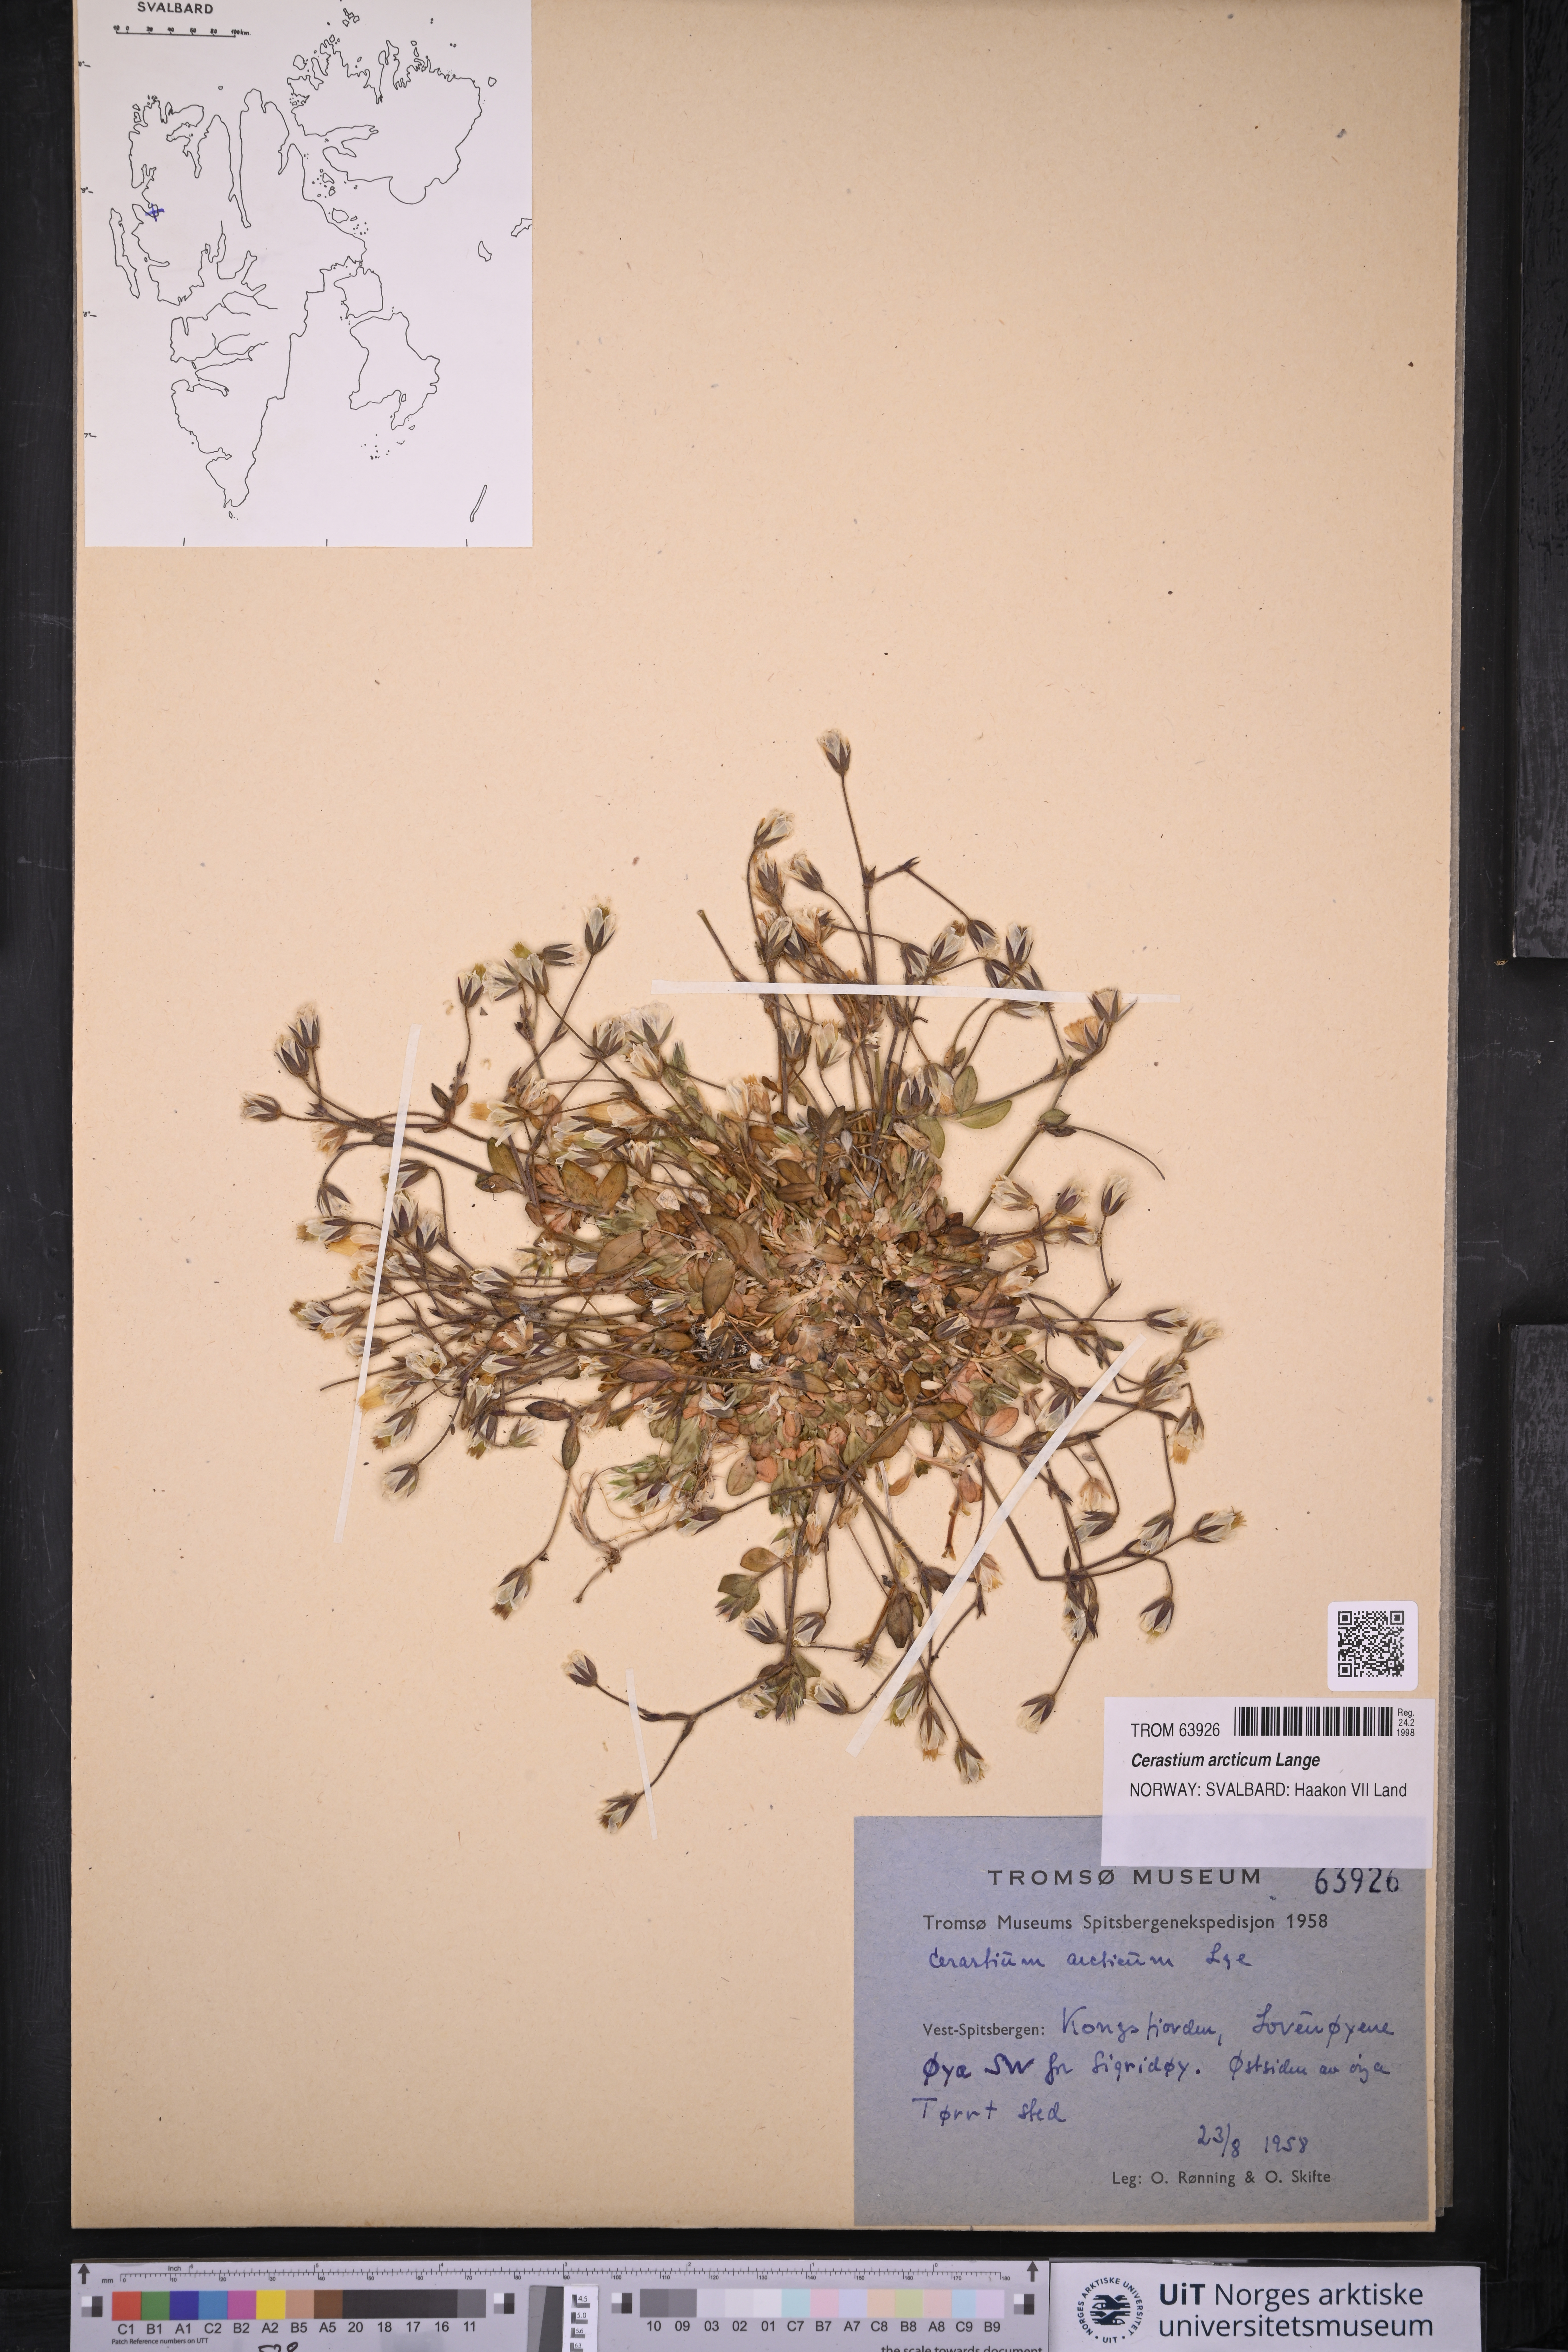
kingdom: Plantae
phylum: Tracheophyta
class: Magnoliopsida
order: Caryophyllales
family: Caryophyllaceae
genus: Cerastium
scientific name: Cerastium arcticum
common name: Arctic mouse-ear
